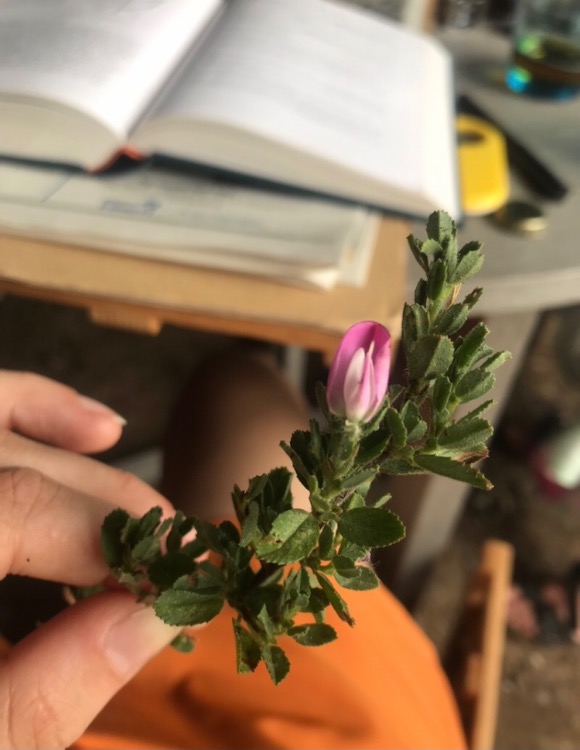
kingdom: Plantae
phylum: Tracheophyta
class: Magnoliopsida
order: Fabales
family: Fabaceae
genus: Ononis
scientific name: Ononis spinosa
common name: Mark-krageklo
